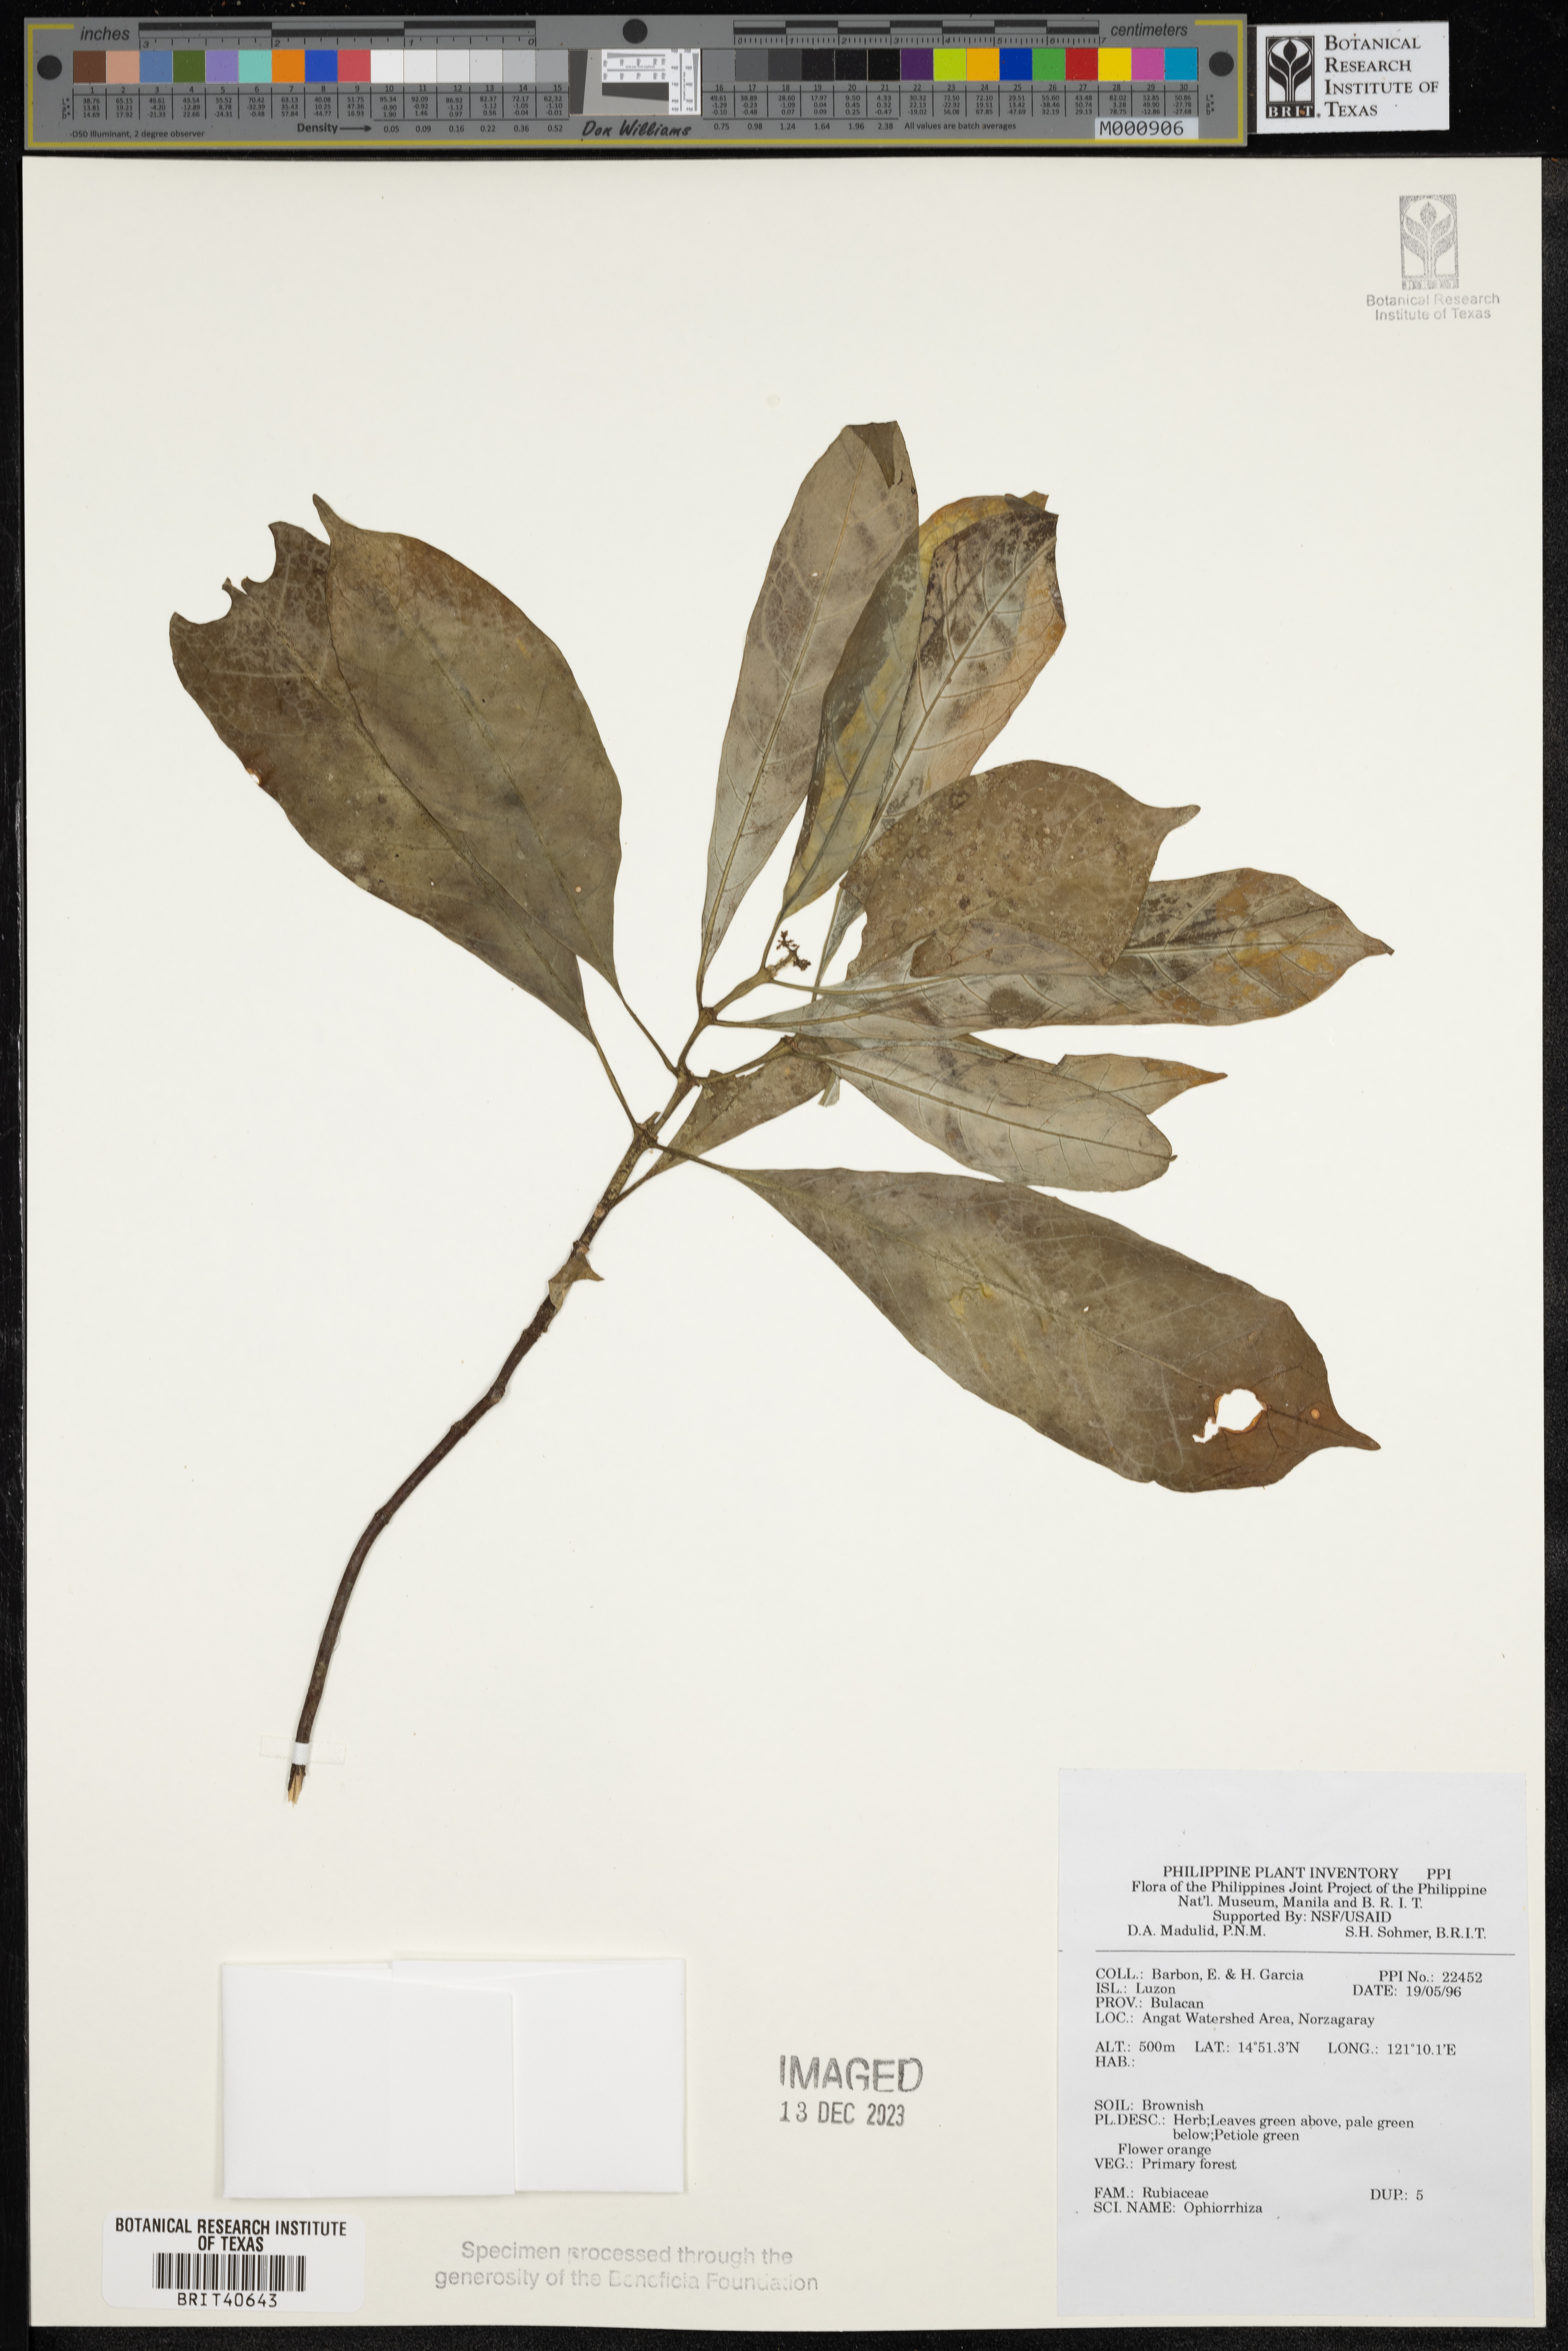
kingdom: Plantae
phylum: Tracheophyta
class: Magnoliopsida
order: Gentianales
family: Rubiaceae
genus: Ophiorrhiza
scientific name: Ophiorrhiza
